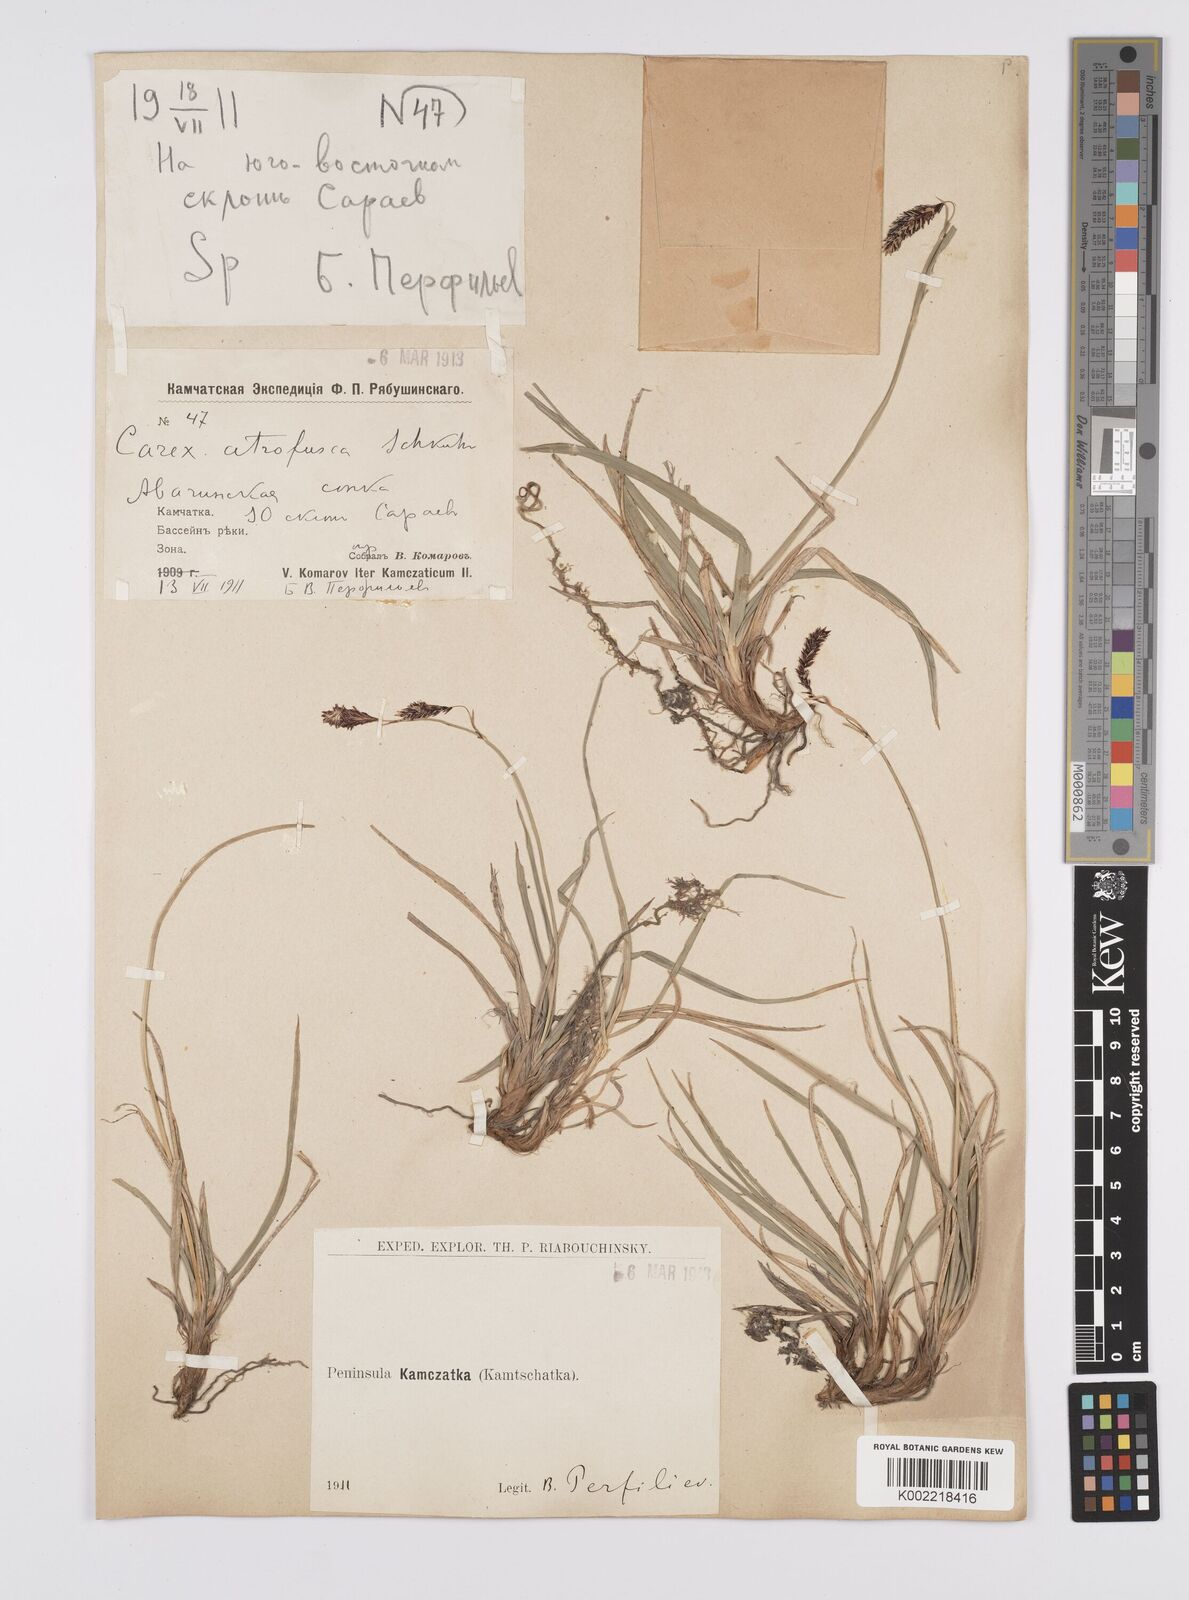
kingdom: Plantae
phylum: Tracheophyta
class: Liliopsida
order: Poales
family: Cyperaceae
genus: Carex
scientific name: Carex scita
